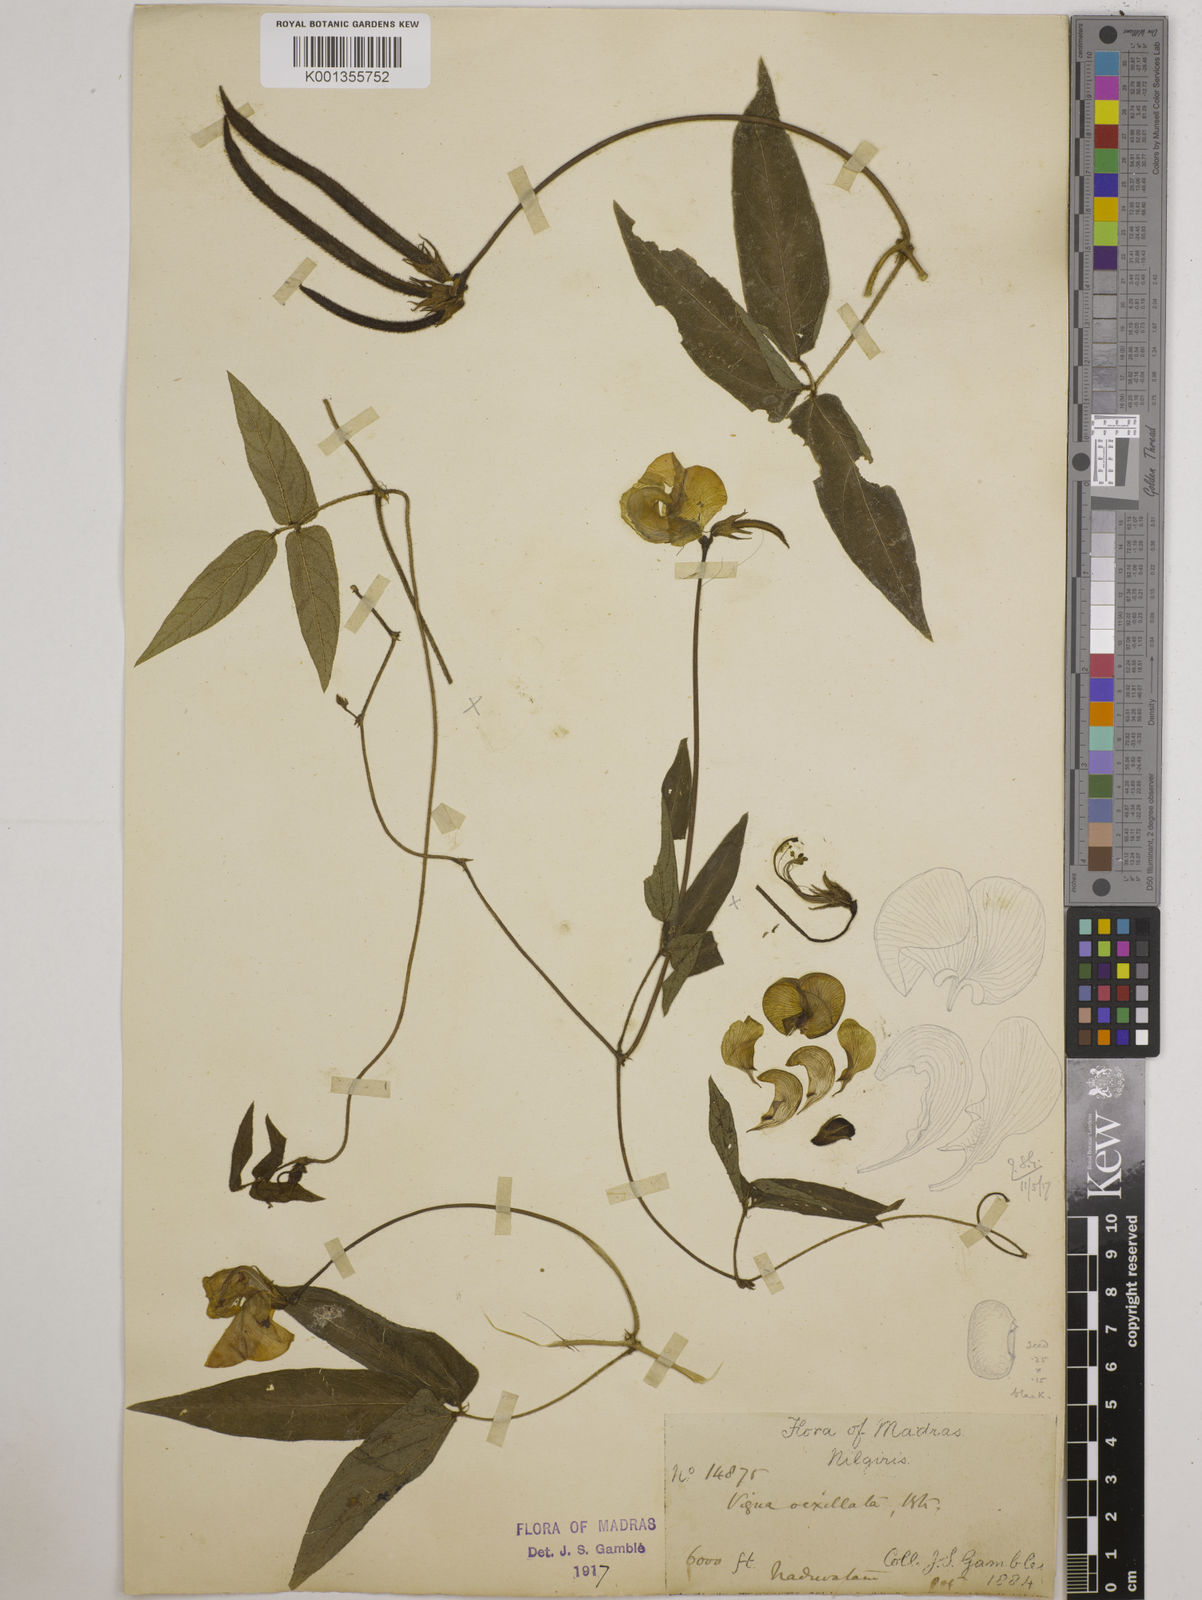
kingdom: Plantae
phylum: Tracheophyta
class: Magnoliopsida
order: Fabales
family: Fabaceae
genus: Vigna
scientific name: Vigna vexillata
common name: Zombi pea
